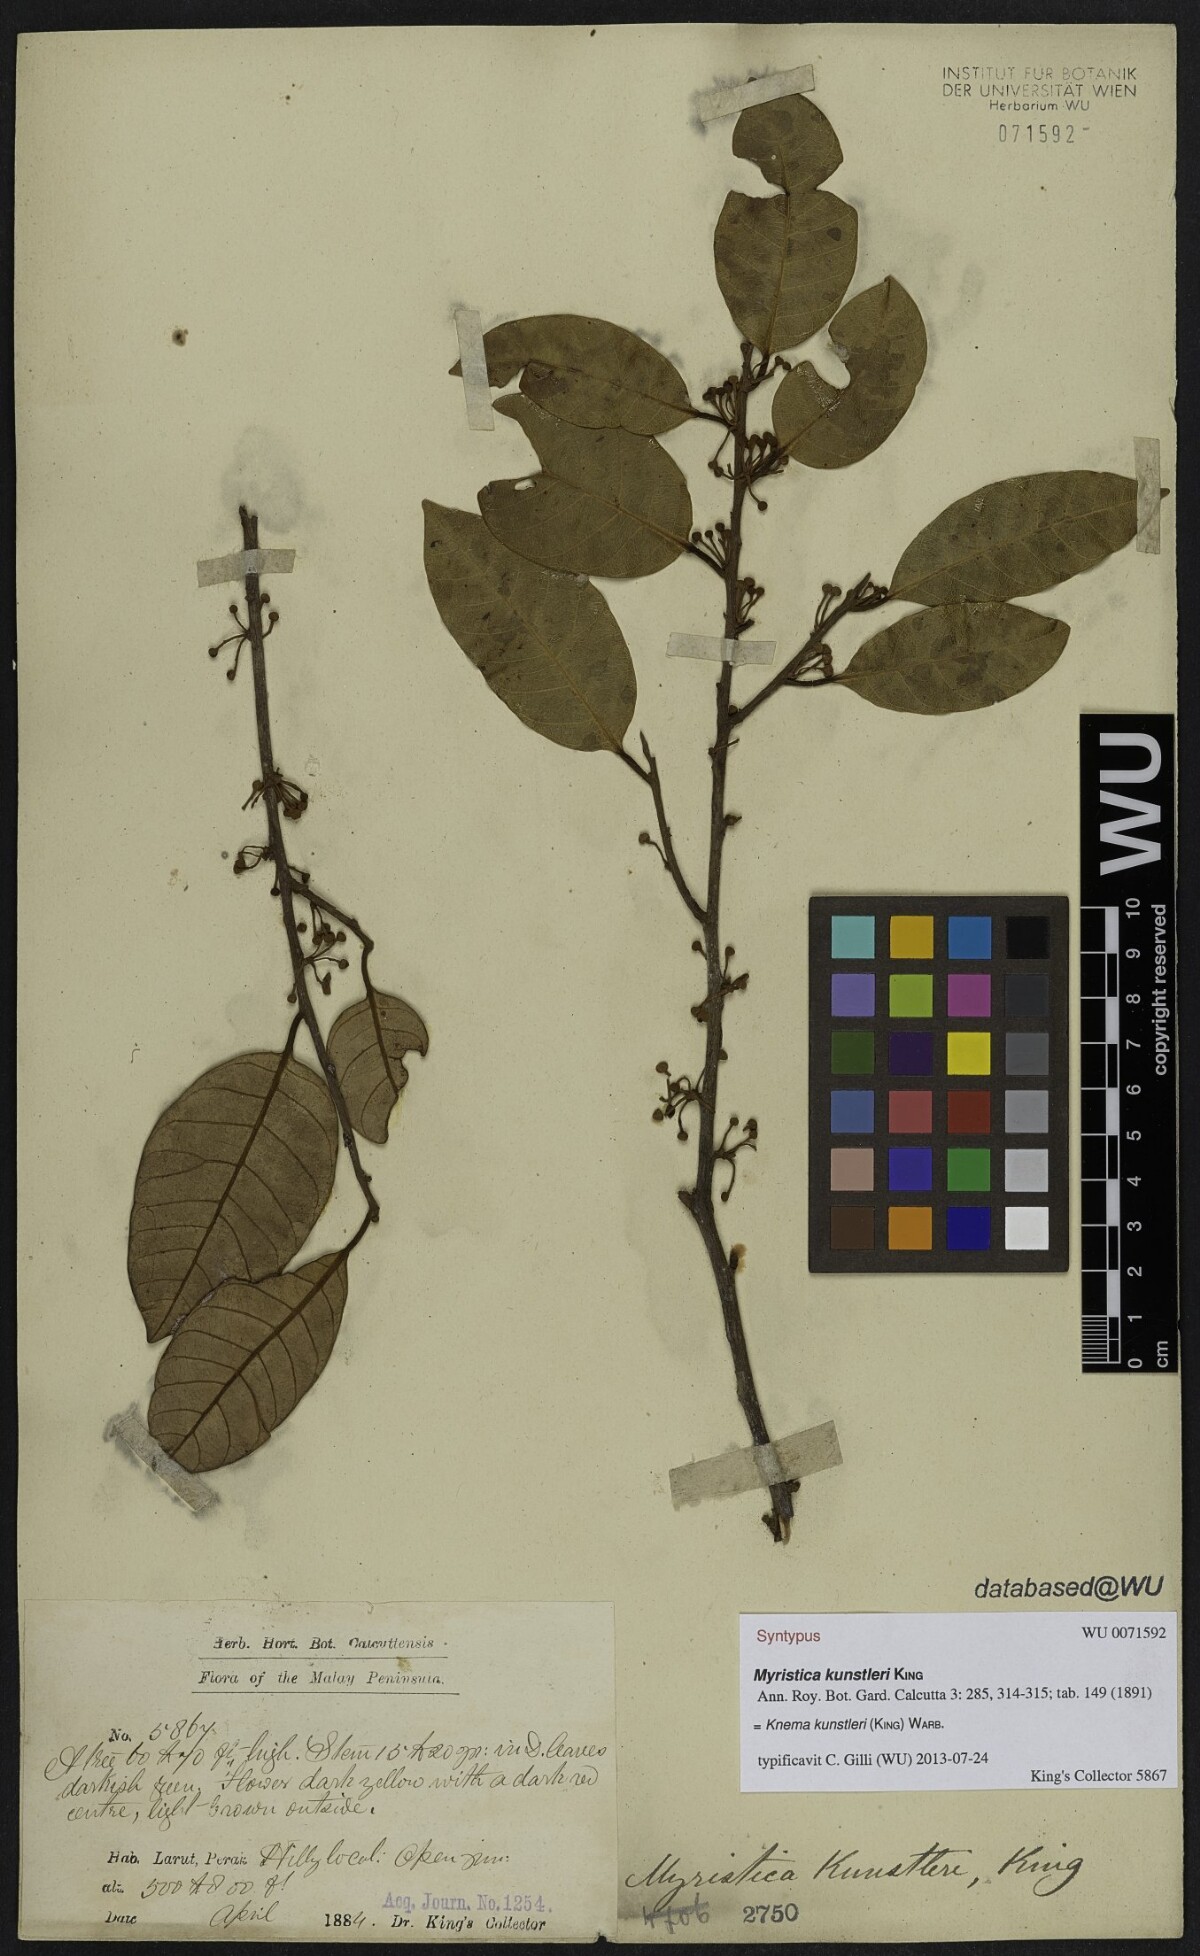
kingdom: Plantae
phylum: Tracheophyta
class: Magnoliopsida
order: Magnoliales
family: Myristicaceae
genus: Knema
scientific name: Knema kunstleri
